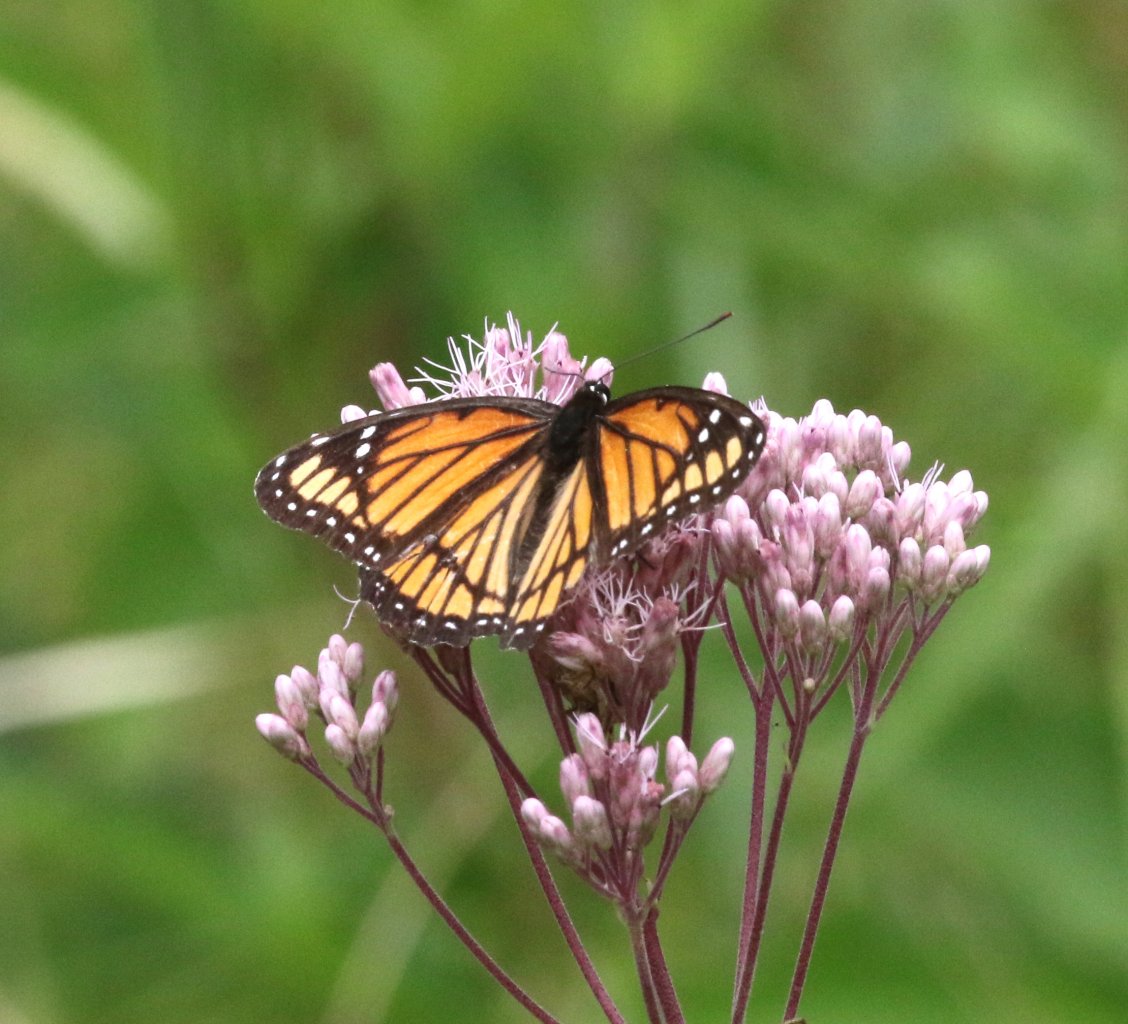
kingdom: Animalia
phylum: Arthropoda
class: Insecta
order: Lepidoptera
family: Nymphalidae
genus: Limenitis
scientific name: Limenitis archippus
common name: Viceroy
